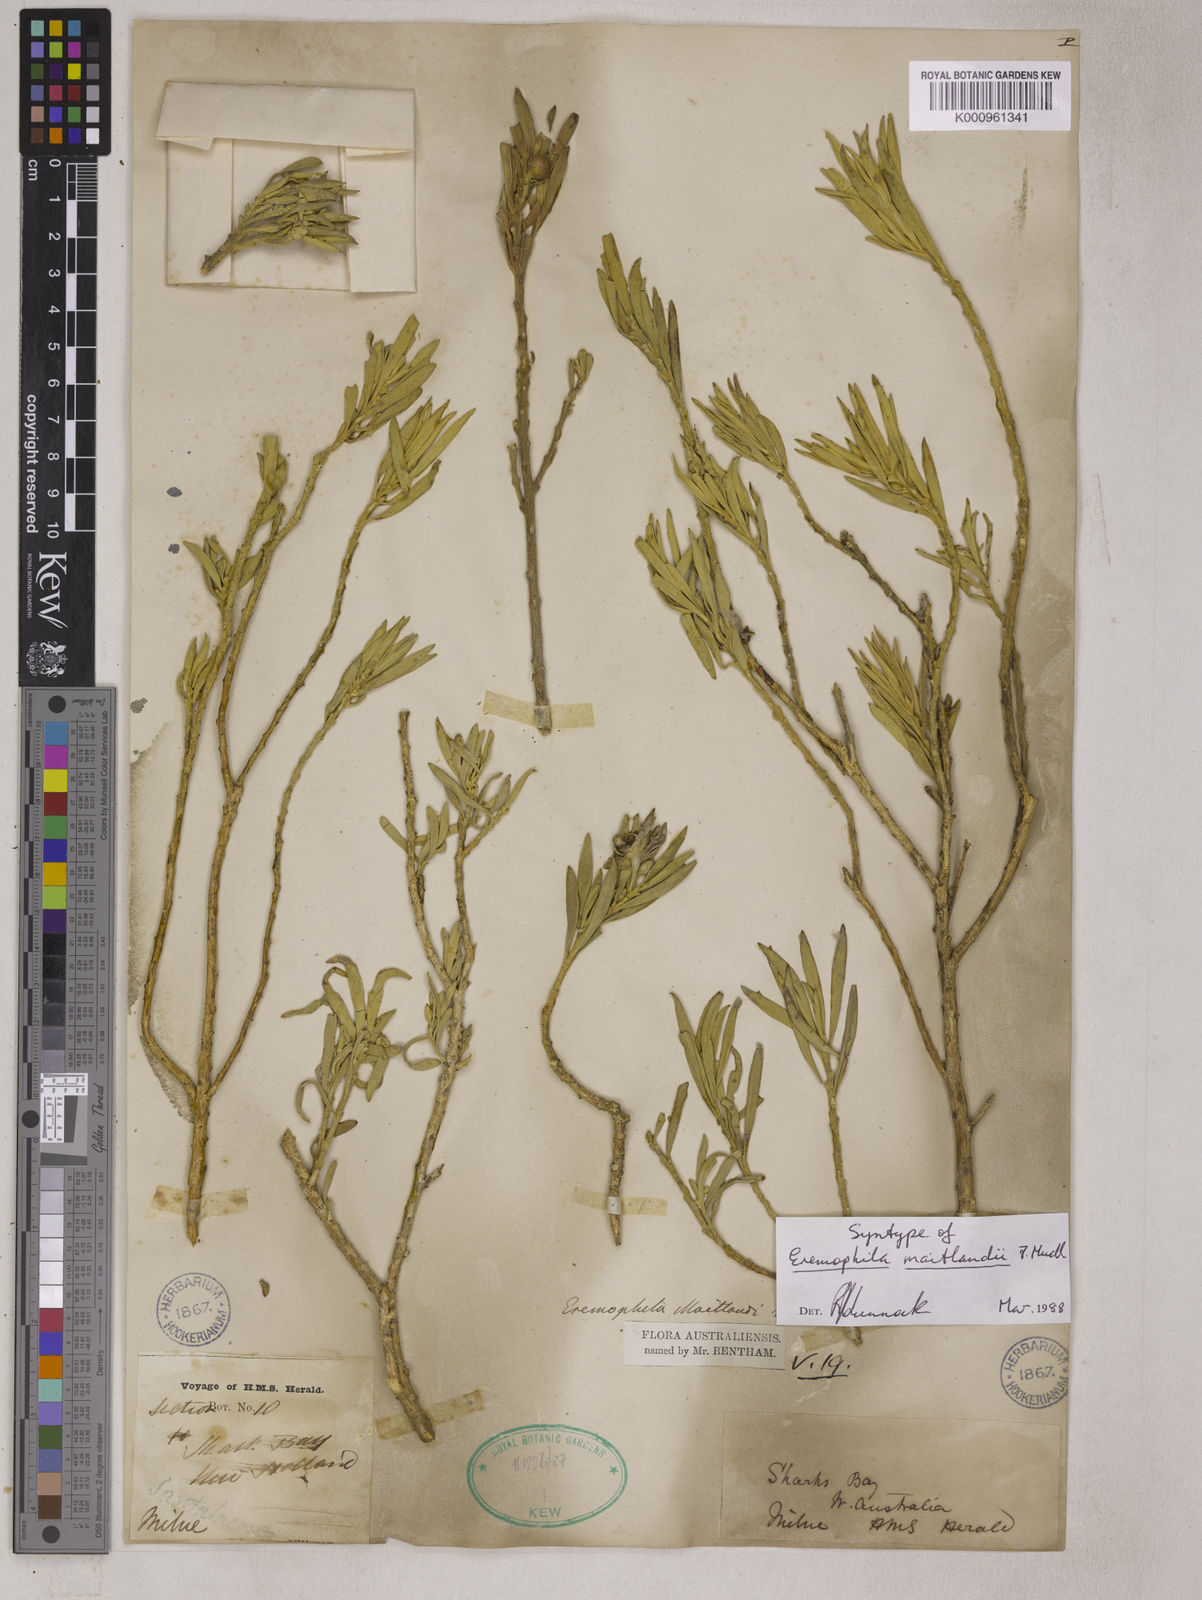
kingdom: Plantae
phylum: Tracheophyta
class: Magnoliopsida
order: Lamiales
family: Scrophulariaceae
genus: Eremophila
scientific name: Eremophila maitlandii
